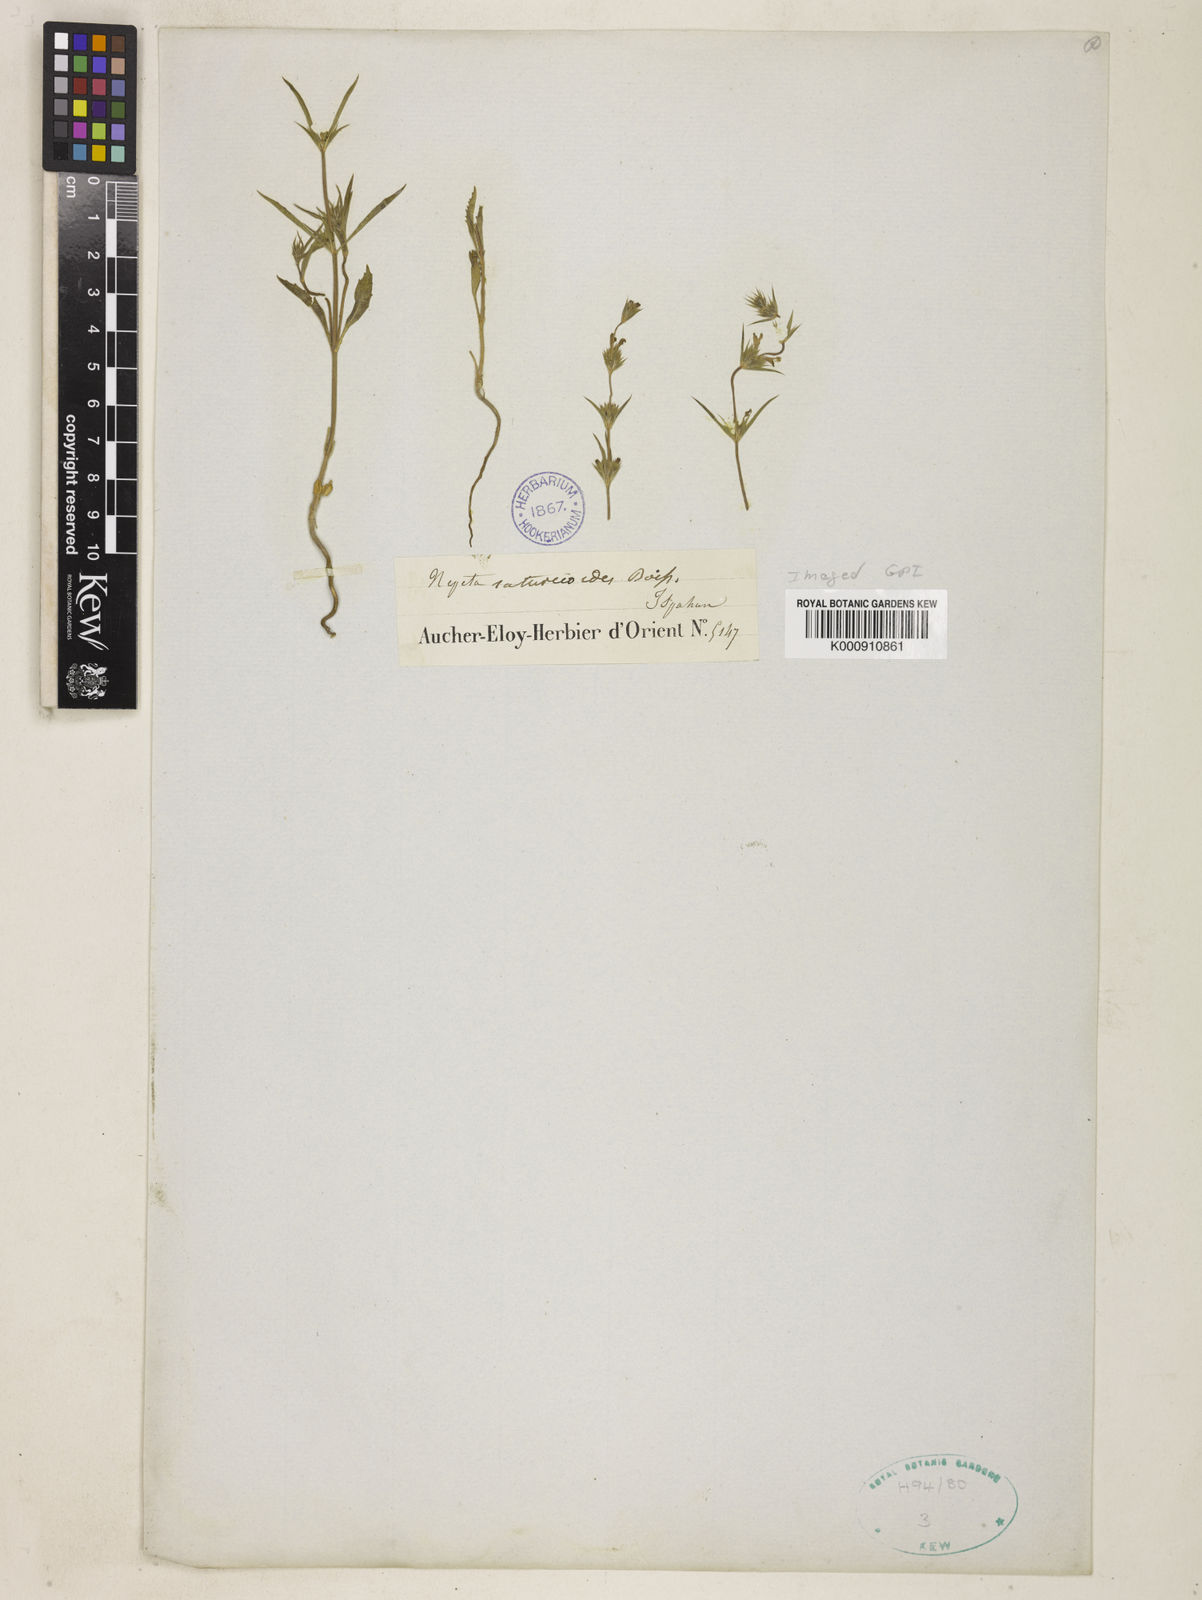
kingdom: Plantae
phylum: Tracheophyta
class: Magnoliopsida
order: Lamiales
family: Lamiaceae
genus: Nepeta
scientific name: Nepeta saturejoides
